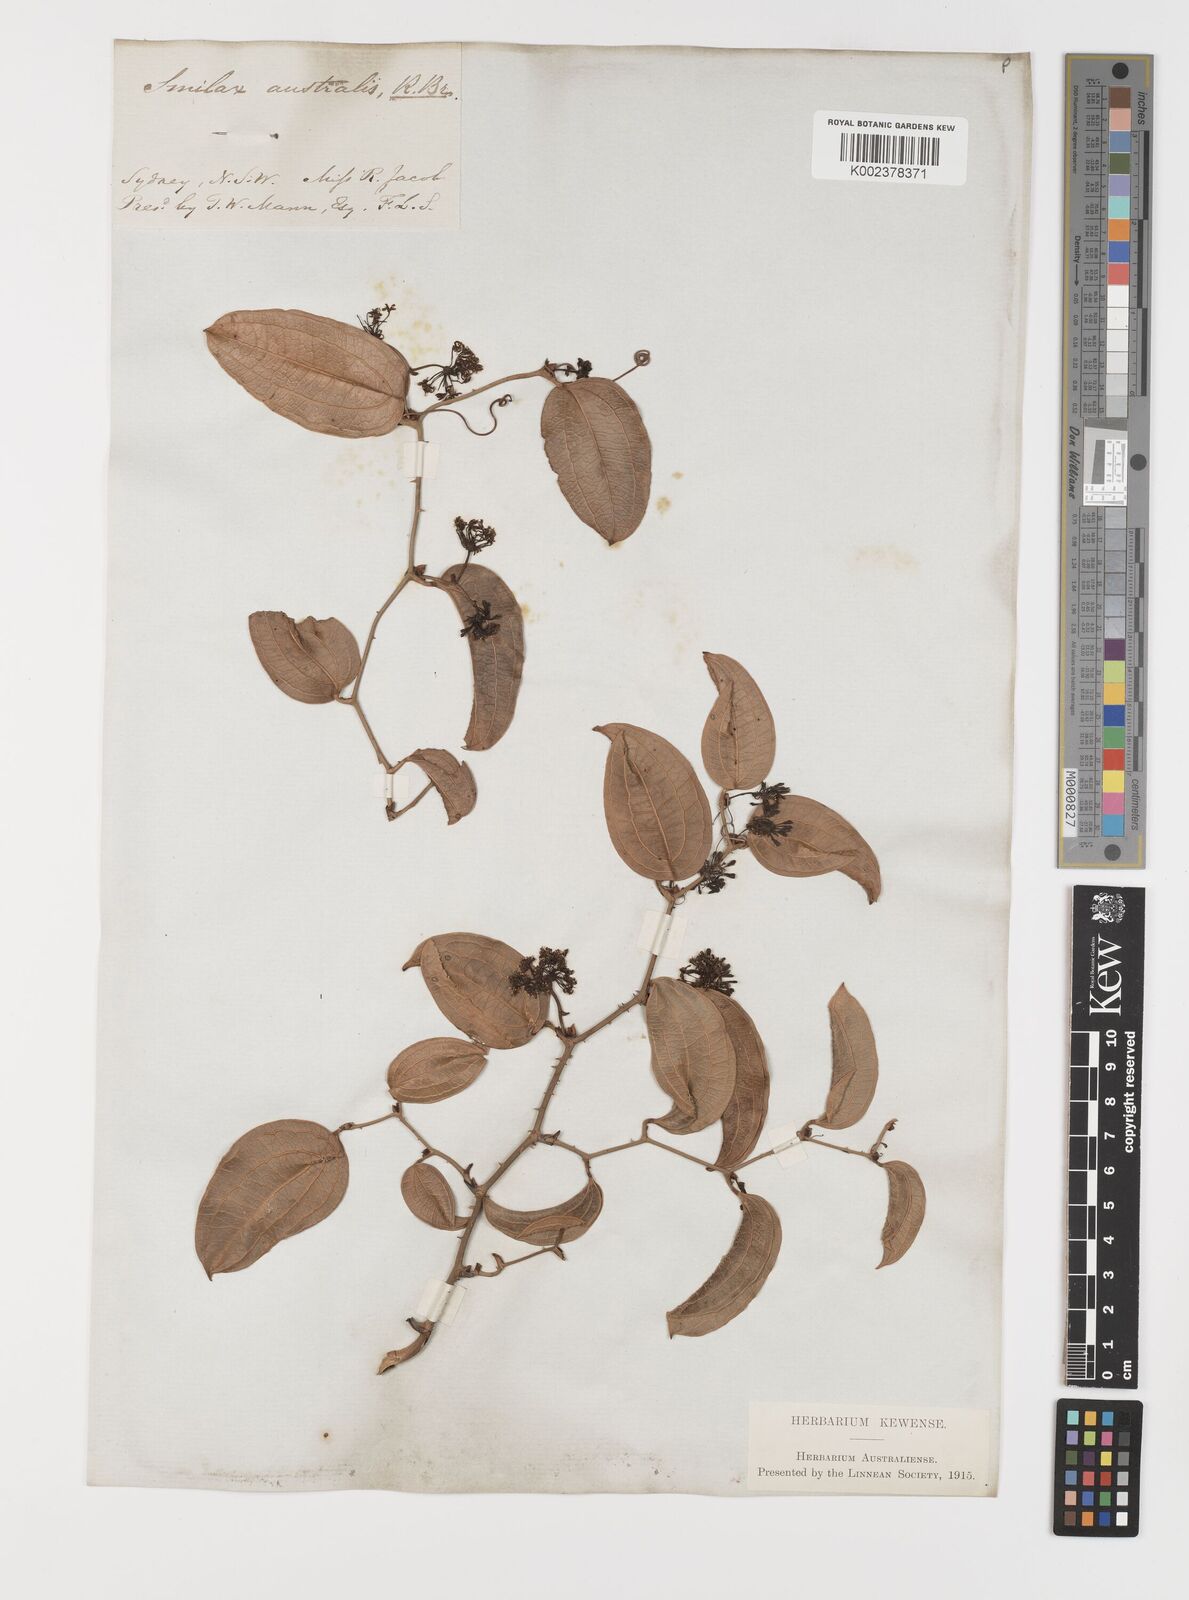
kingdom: Plantae
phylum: Tracheophyta
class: Liliopsida
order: Liliales
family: Smilacaceae
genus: Smilax
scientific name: Smilax australis
